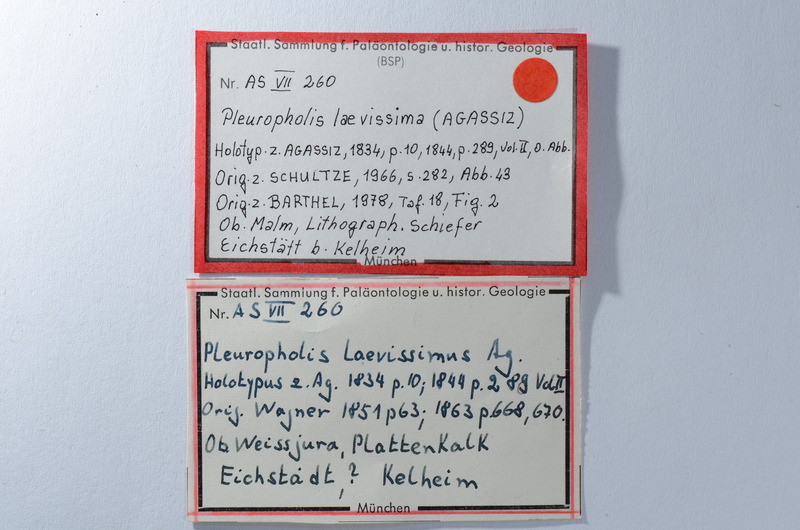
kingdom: Animalia
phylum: Chordata
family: Pleuropholidae
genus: Pleuropholis
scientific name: Pleuropholis laevissima
